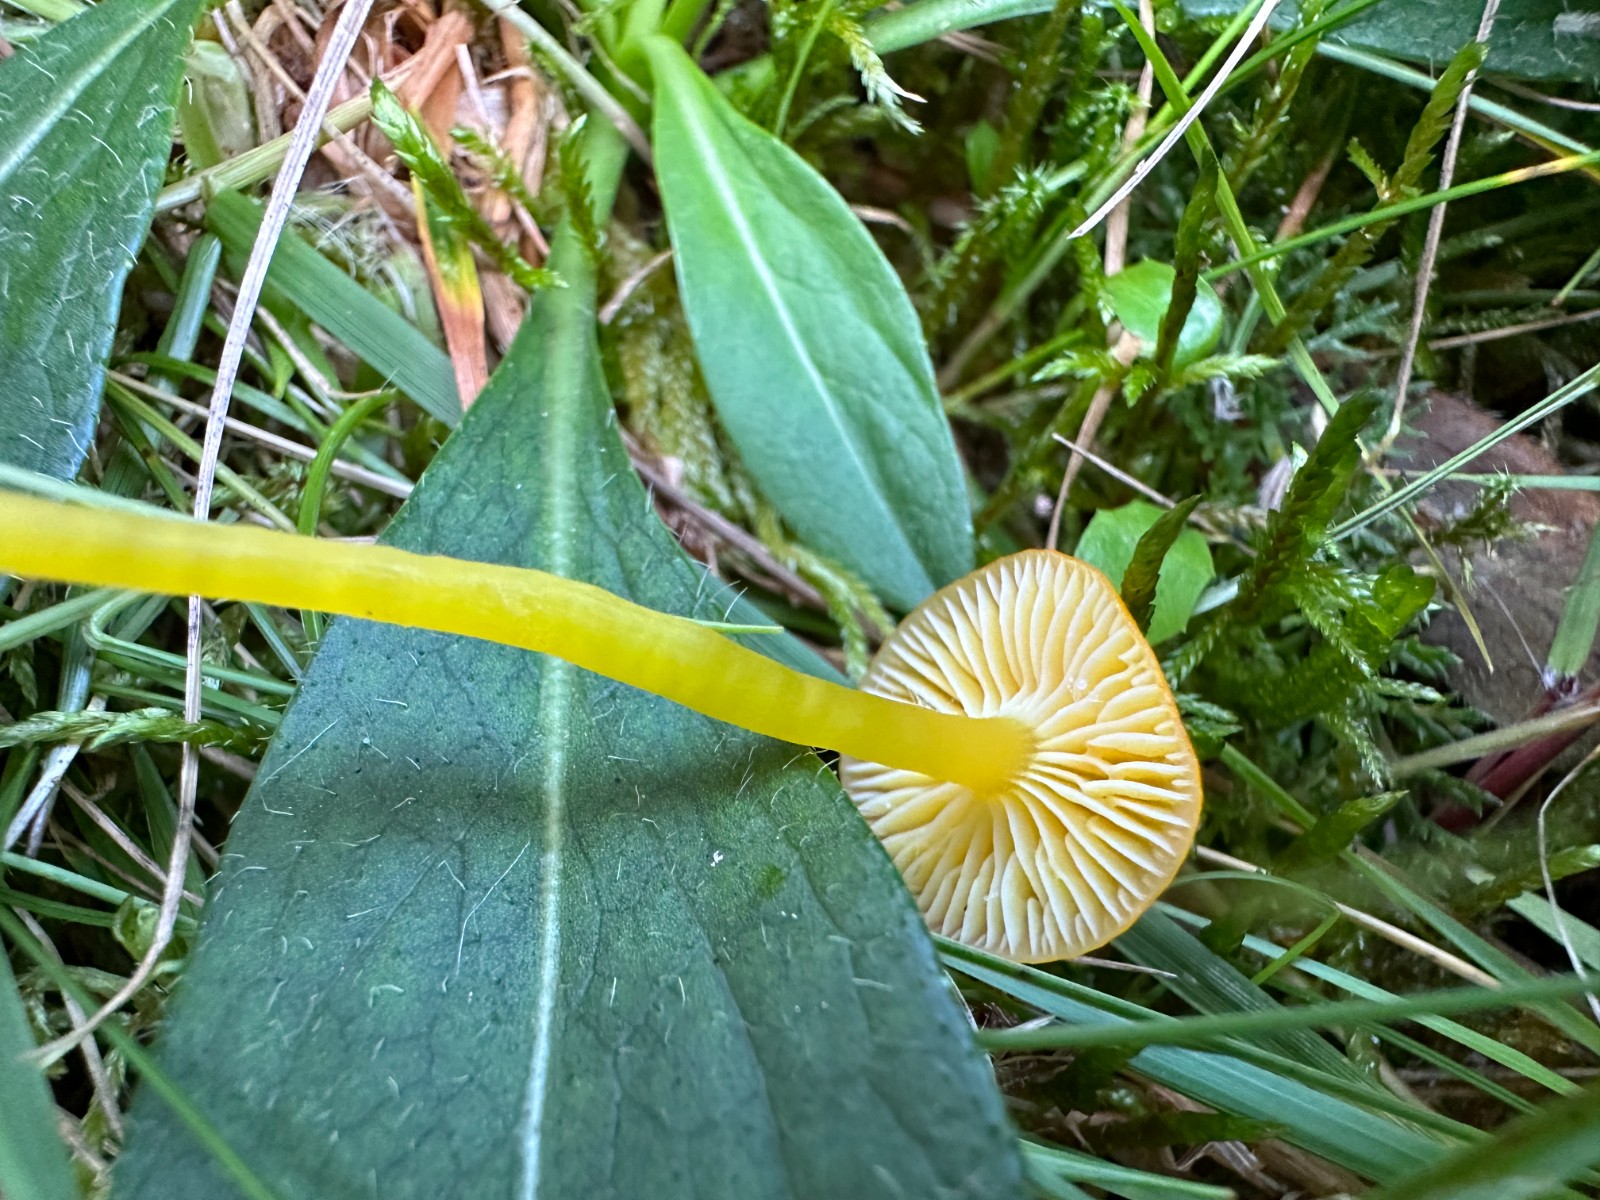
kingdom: Fungi
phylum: Basidiomycota
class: Agaricomycetes
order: Agaricales
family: Hygrophoraceae
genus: Hygrocybe
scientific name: Hygrocybe ceracea
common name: voksgul vokshat
